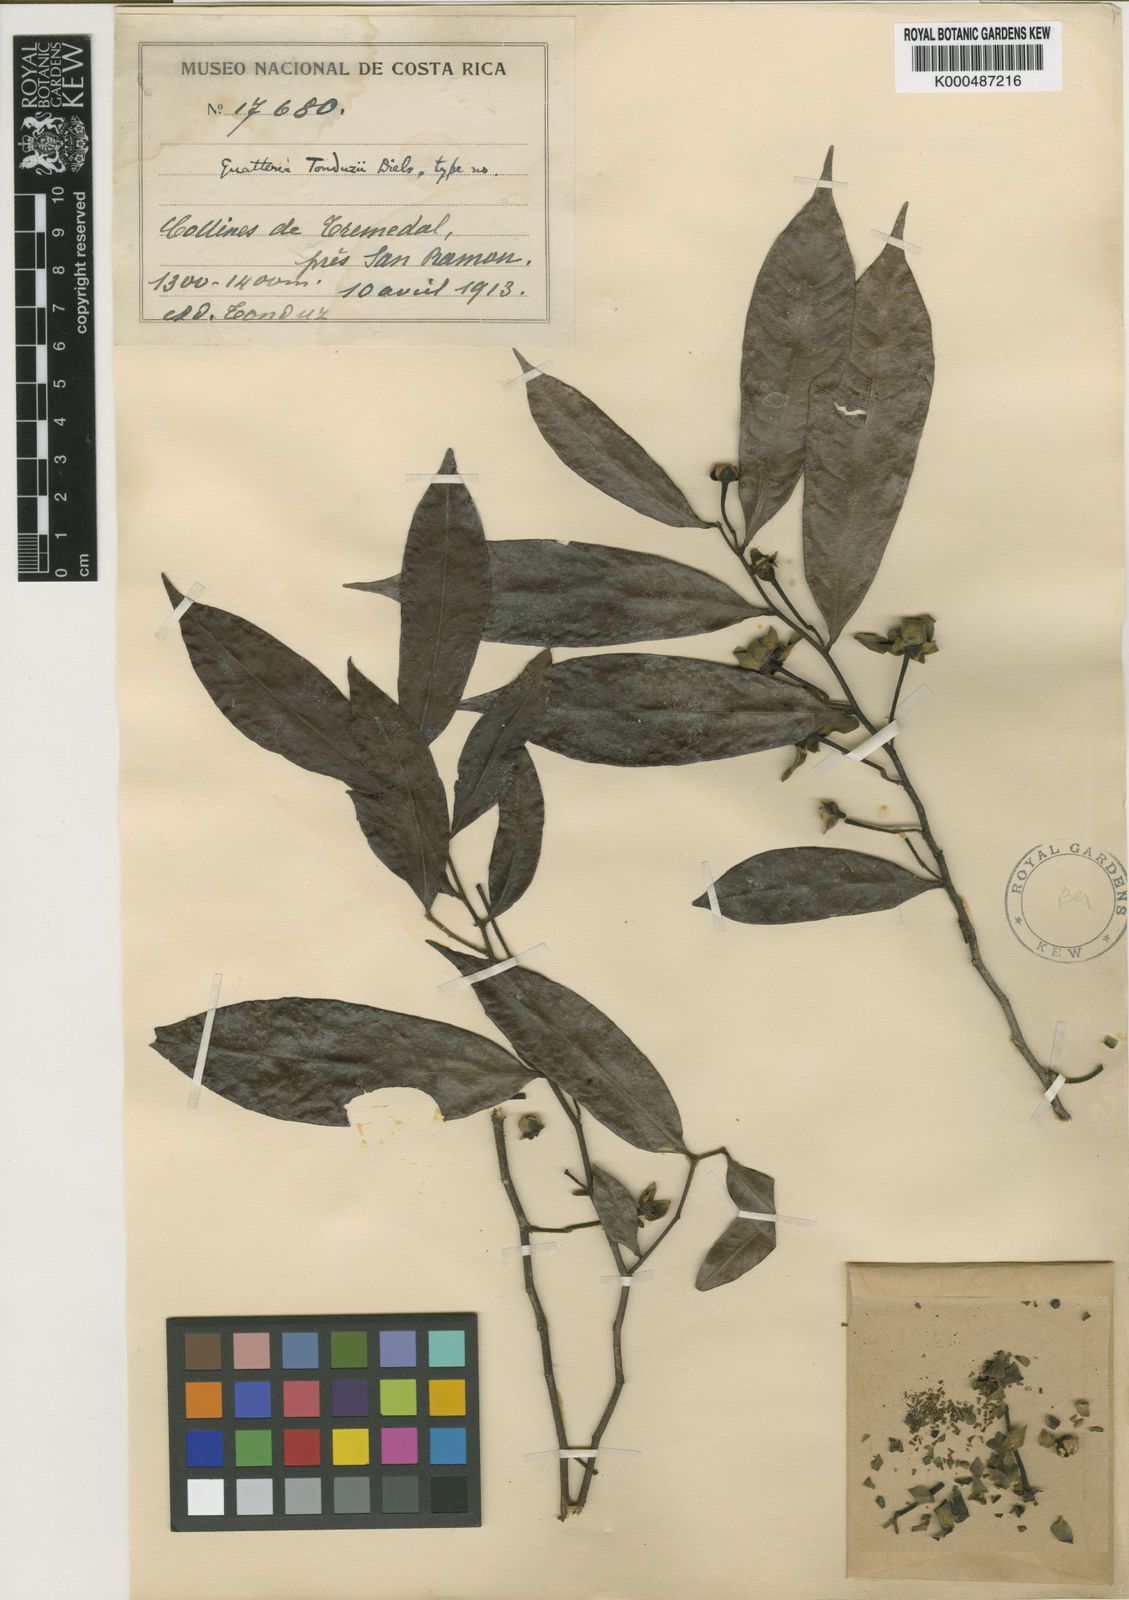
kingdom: Plantae
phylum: Tracheophyta
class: Magnoliopsida
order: Magnoliales
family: Annonaceae
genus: Guatteria
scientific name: Guatteria dolichopoda
